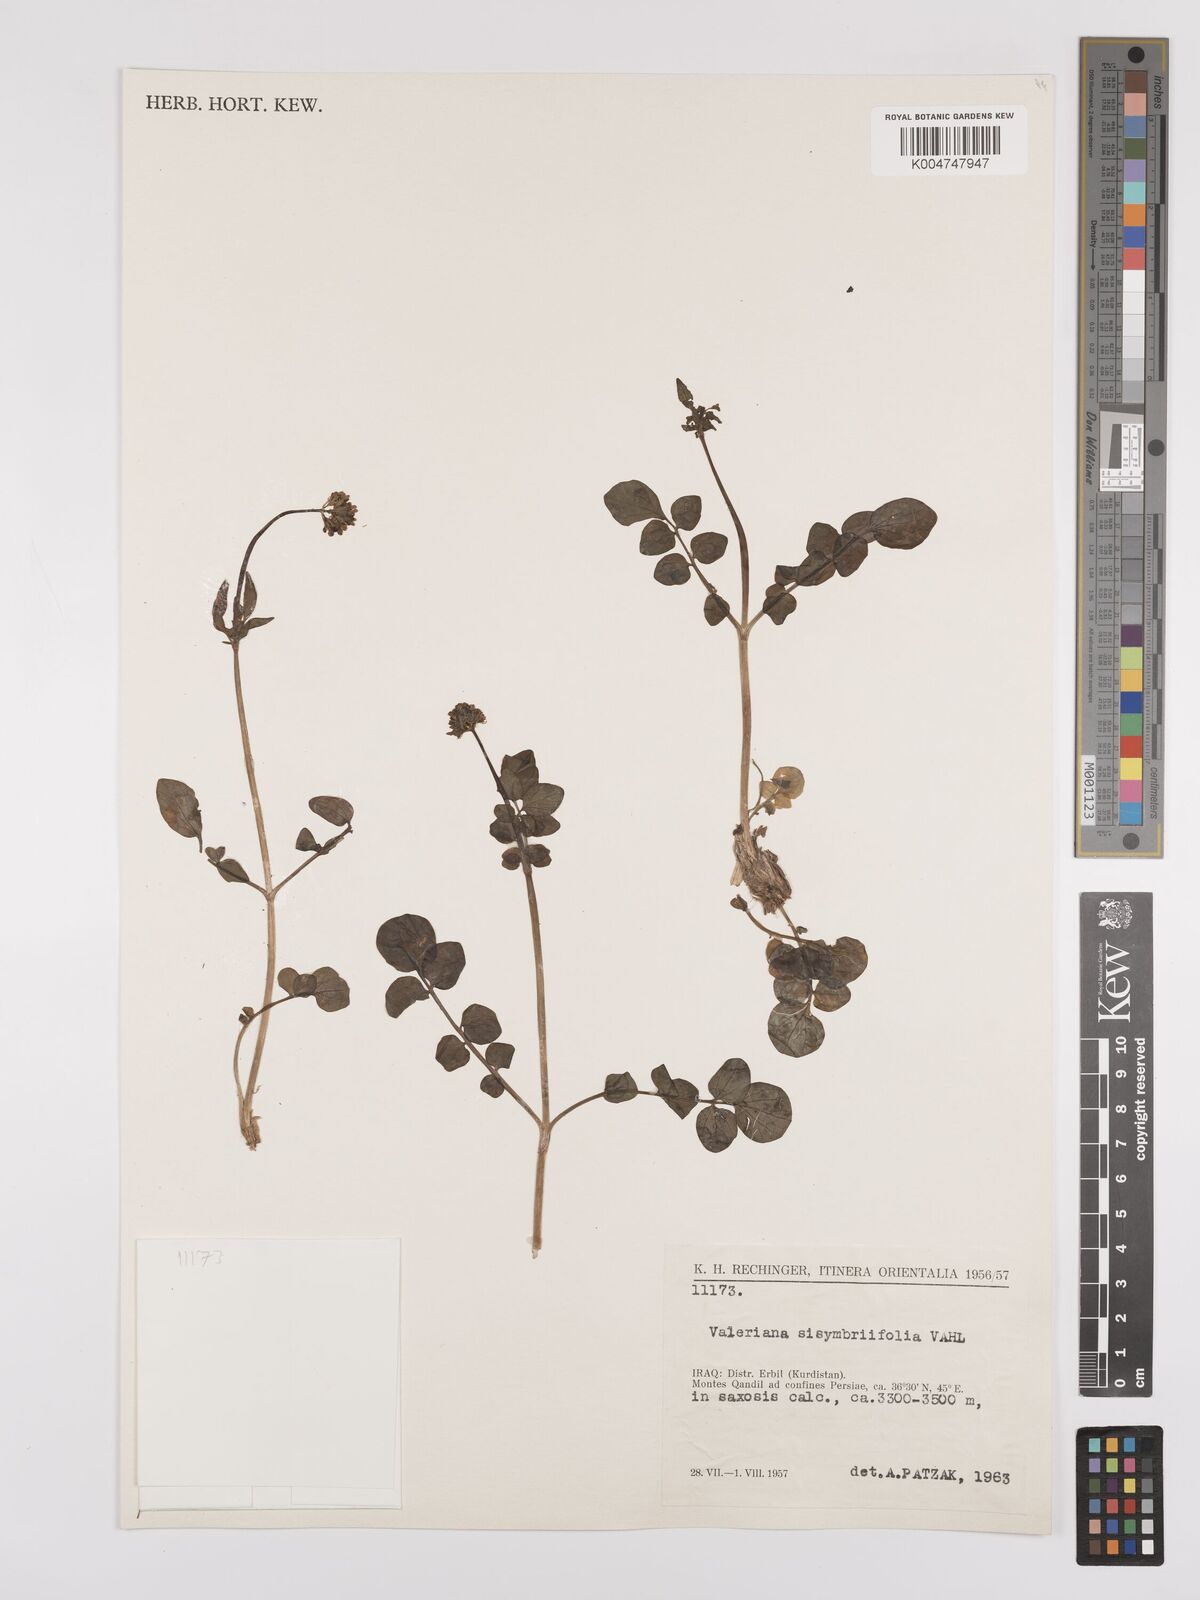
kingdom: Plantae
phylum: Tracheophyta
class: Magnoliopsida
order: Dipsacales
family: Caprifoliaceae
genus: Valeriana
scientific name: Valeriana
